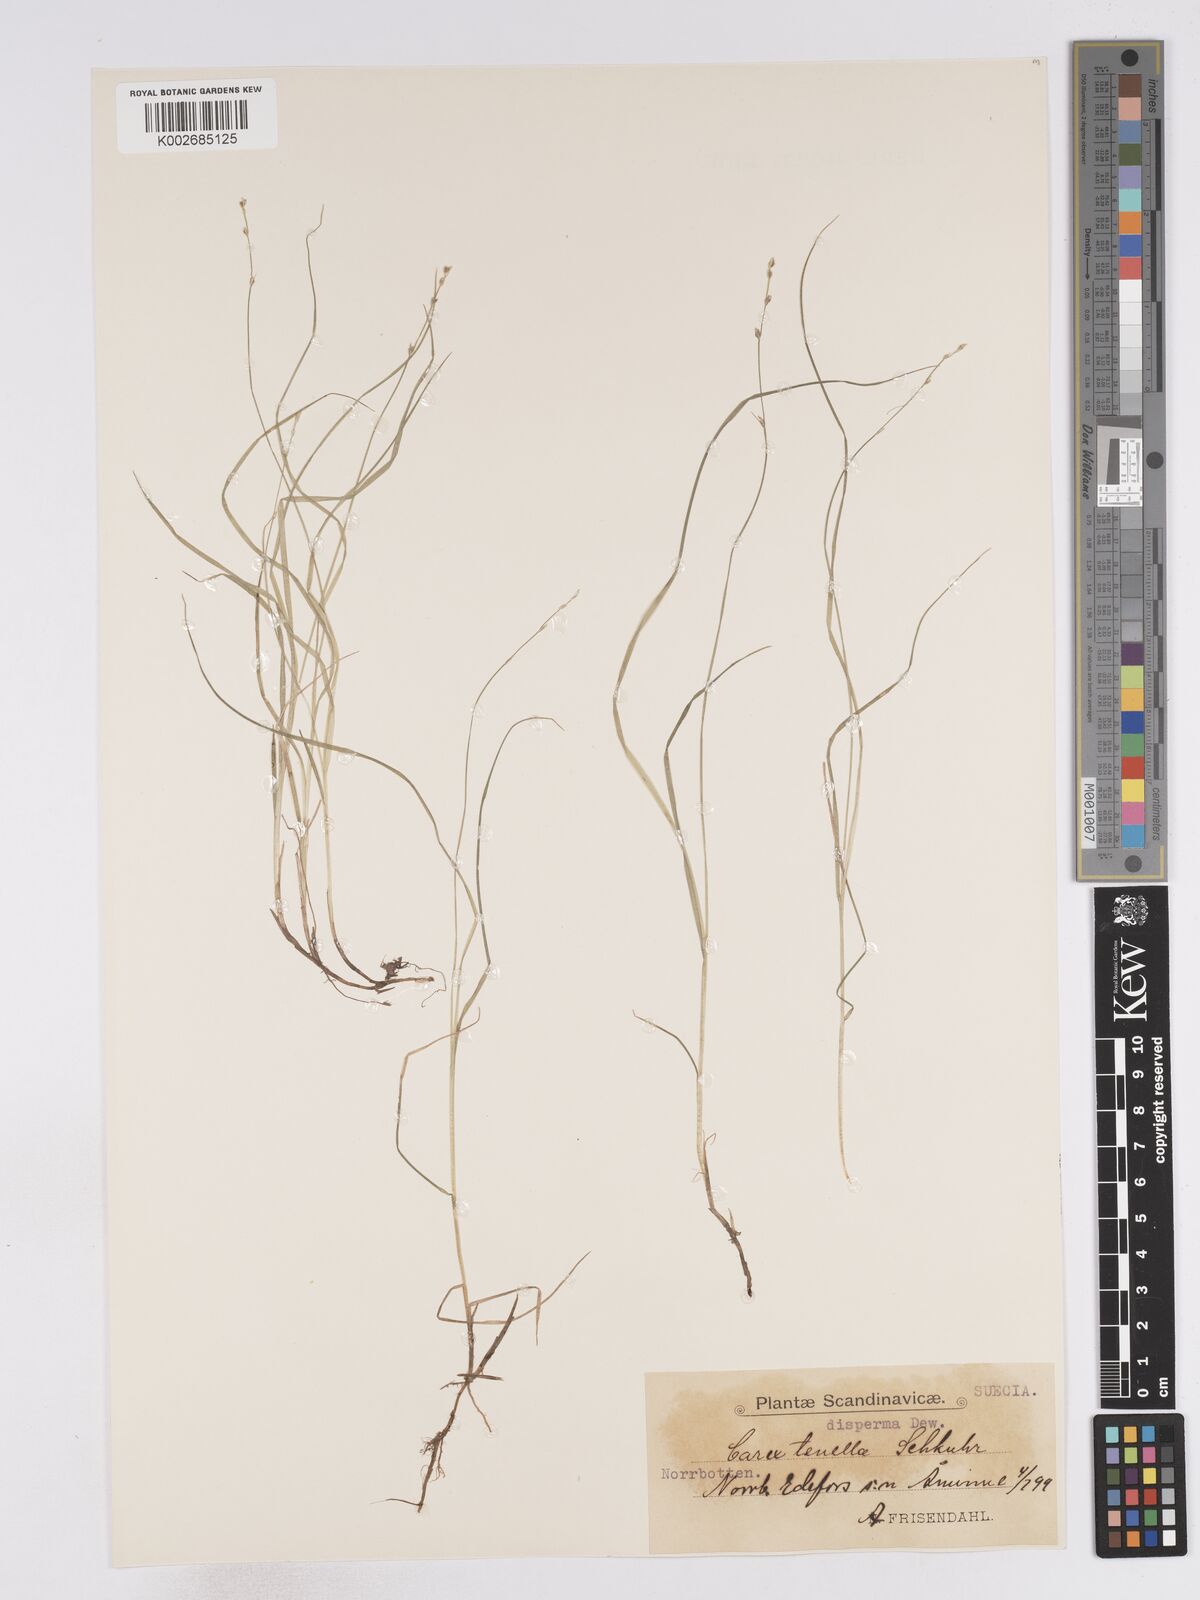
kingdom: Plantae
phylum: Tracheophyta
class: Liliopsida
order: Poales
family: Cyperaceae
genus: Carex
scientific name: Carex disperma
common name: Short-leaved sedge
